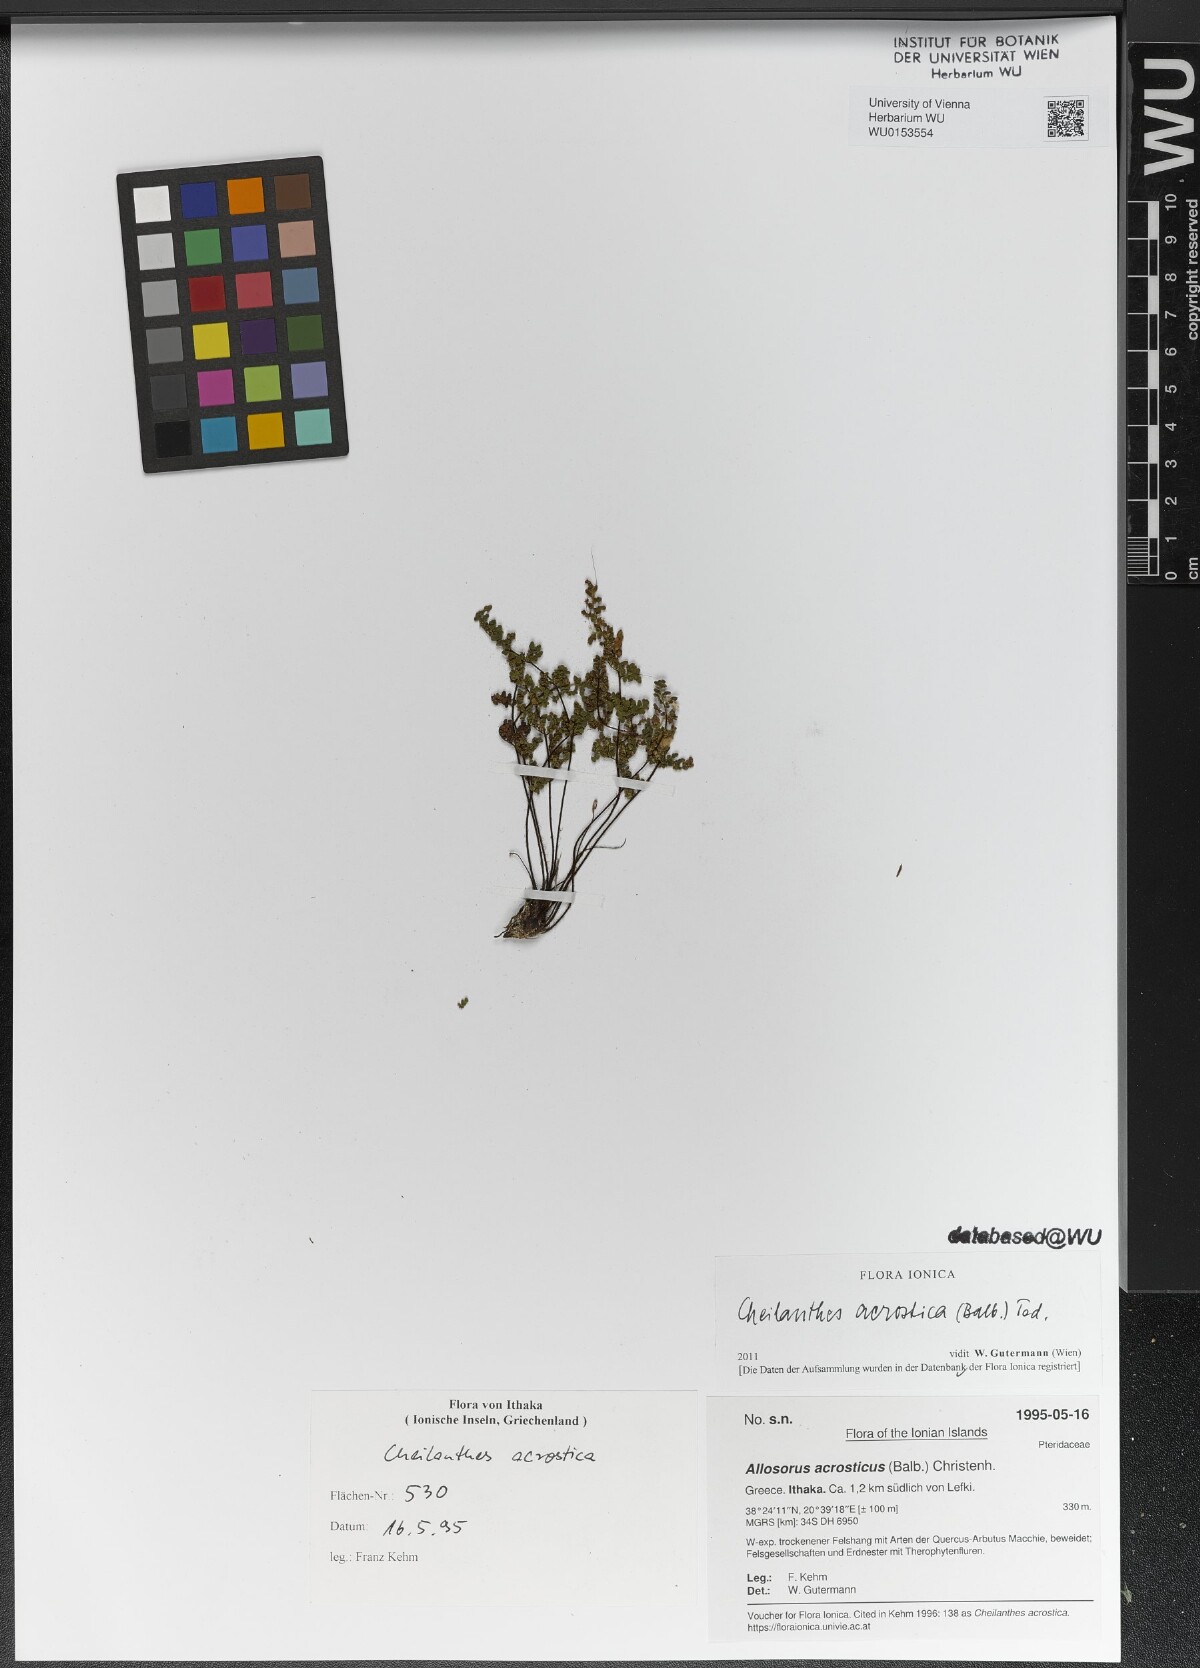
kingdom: Plantae
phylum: Tracheophyta
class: Polypodiopsida
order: Polypodiales
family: Pteridaceae
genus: Oeosporangium
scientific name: Oeosporangium pteridioides
